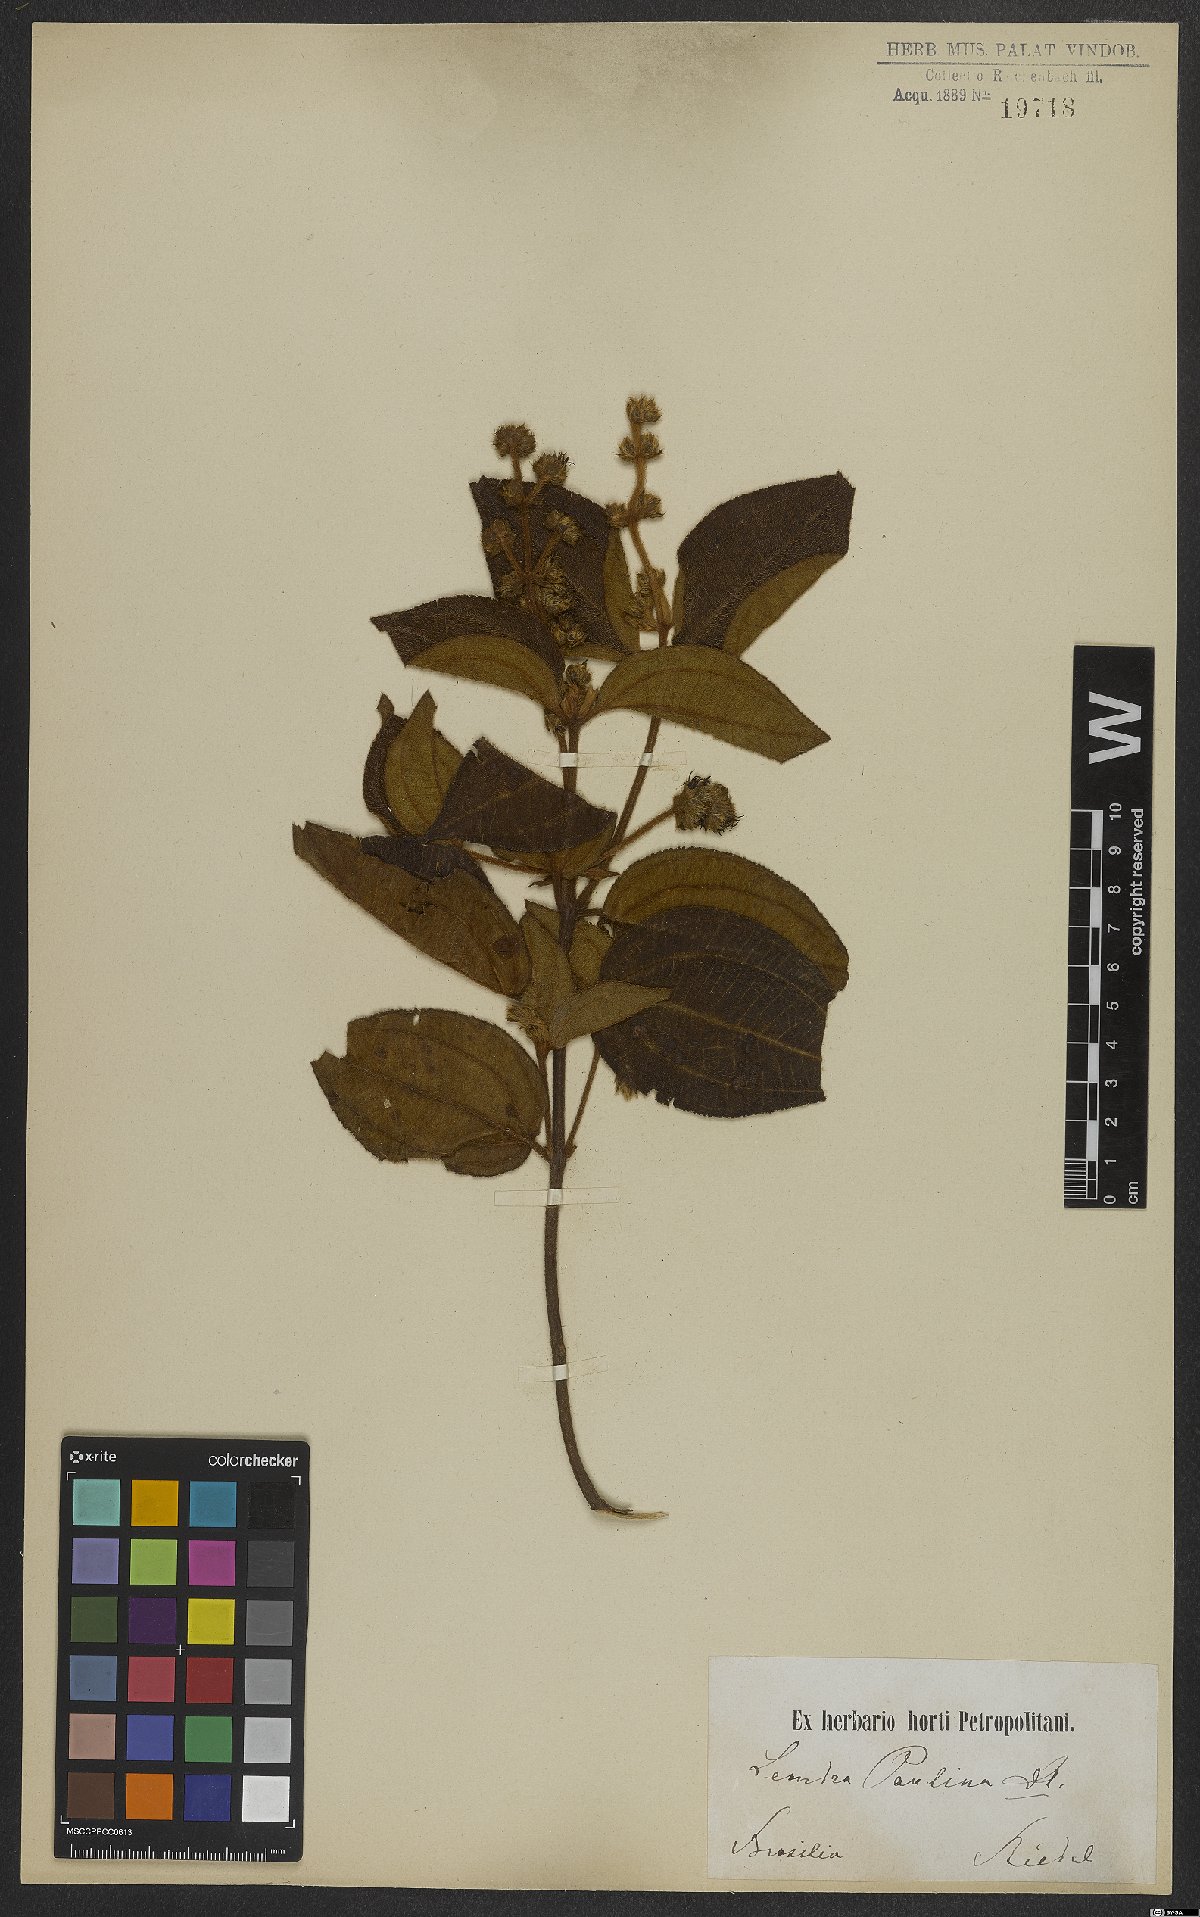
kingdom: Plantae
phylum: Tracheophyta
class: Magnoliopsida
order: Myrtales
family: Melastomataceae
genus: Miconia
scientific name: Miconia paulina
